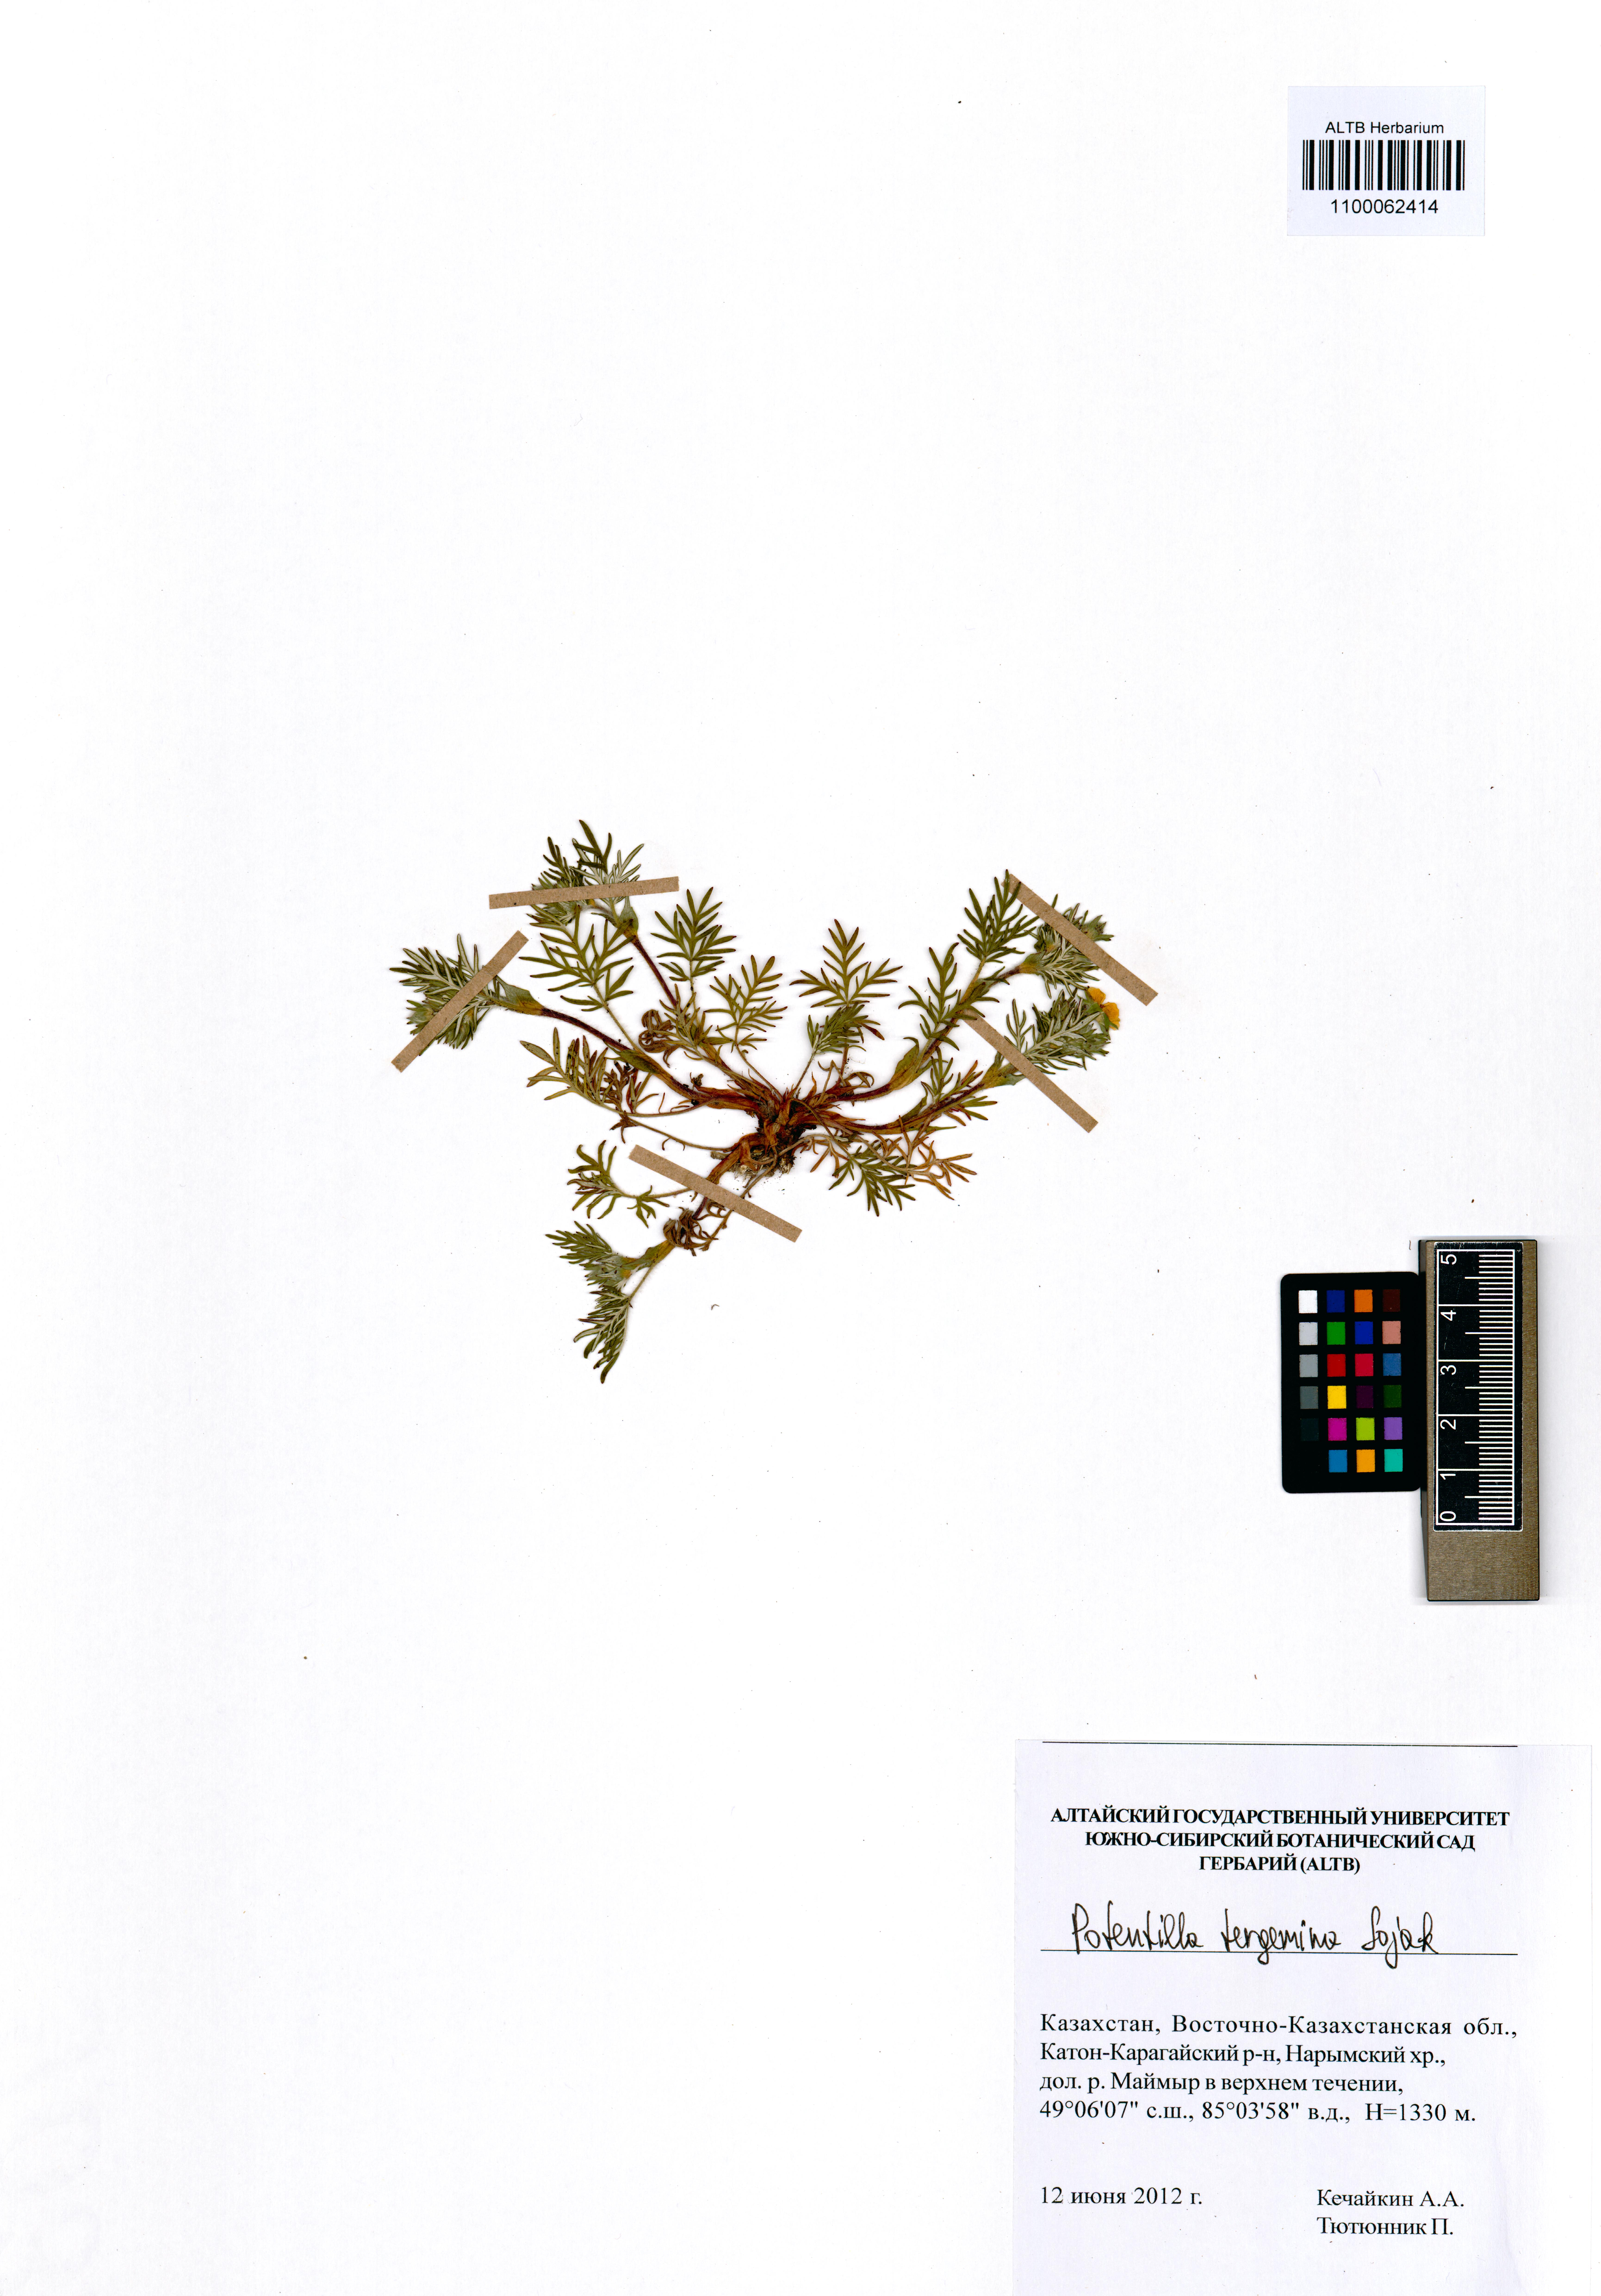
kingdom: Plantae
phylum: Tracheophyta
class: Magnoliopsida
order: Rosales
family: Rosaceae
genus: Potentilla
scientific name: Potentilla tergemina
